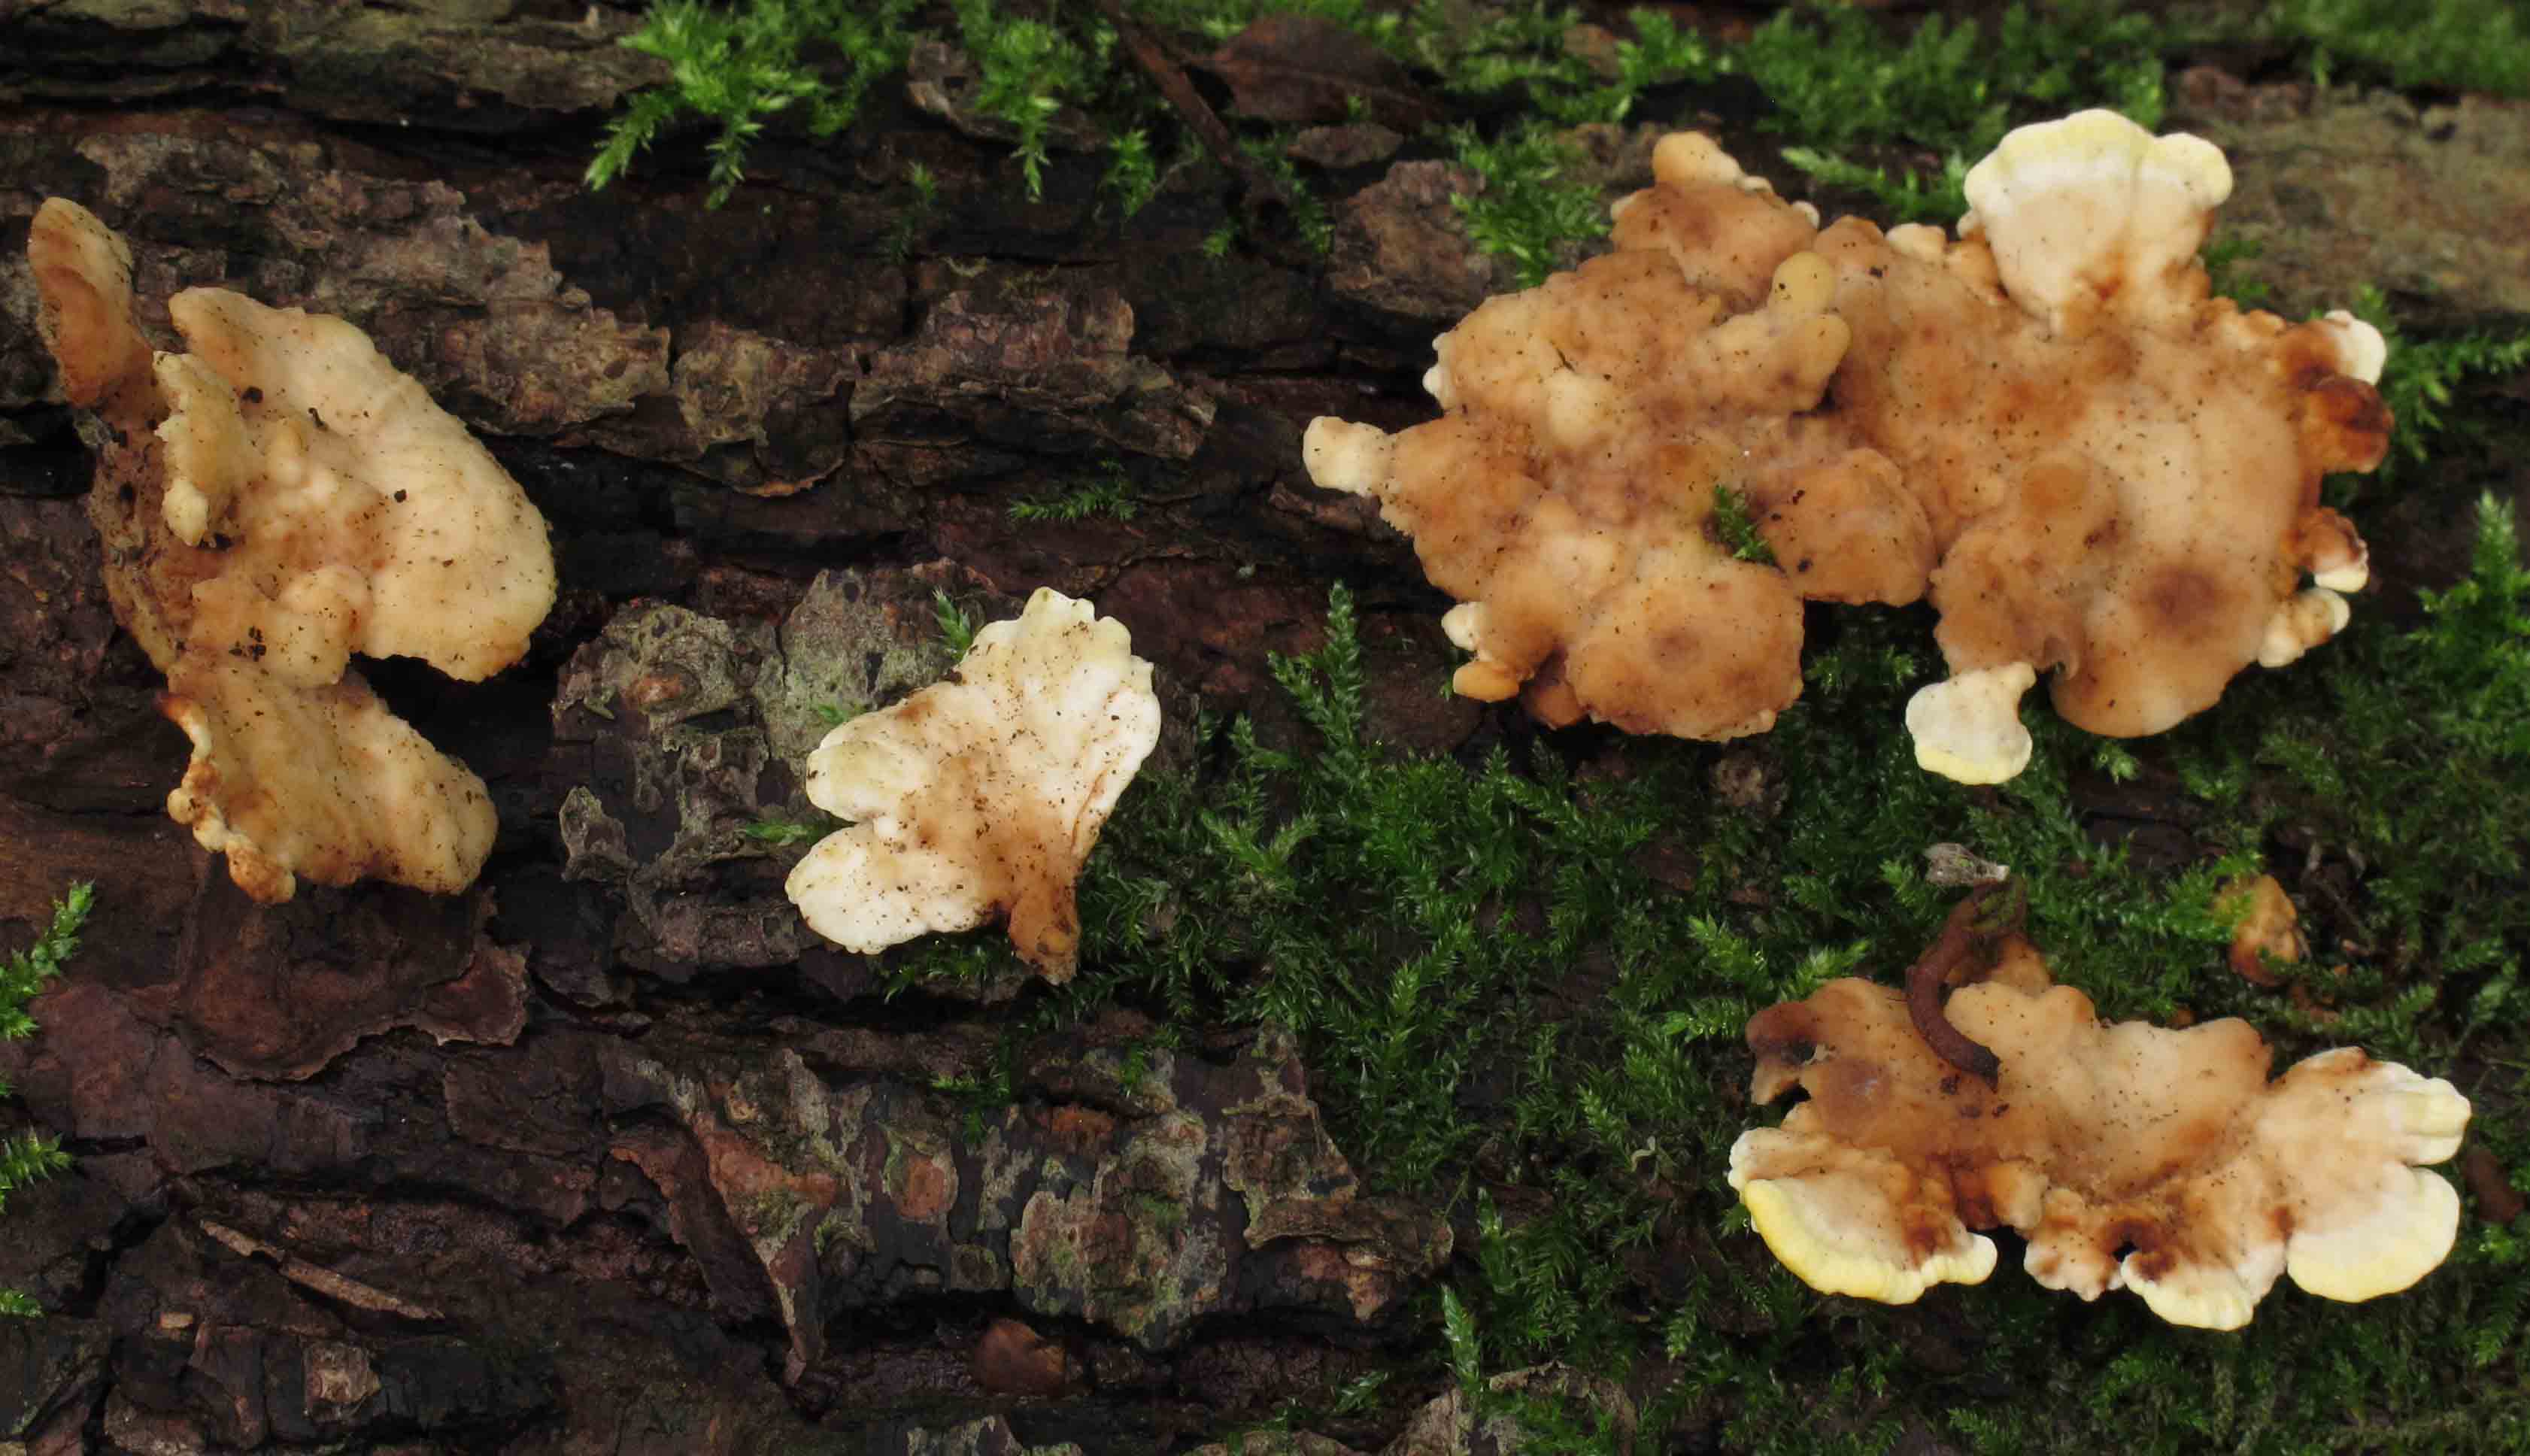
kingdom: Fungi
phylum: Basidiomycota
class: Agaricomycetes
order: Polyporales
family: Steccherinaceae
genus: Antrodiella
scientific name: Antrodiella serpula
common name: gulrandet elastikporesvamp
